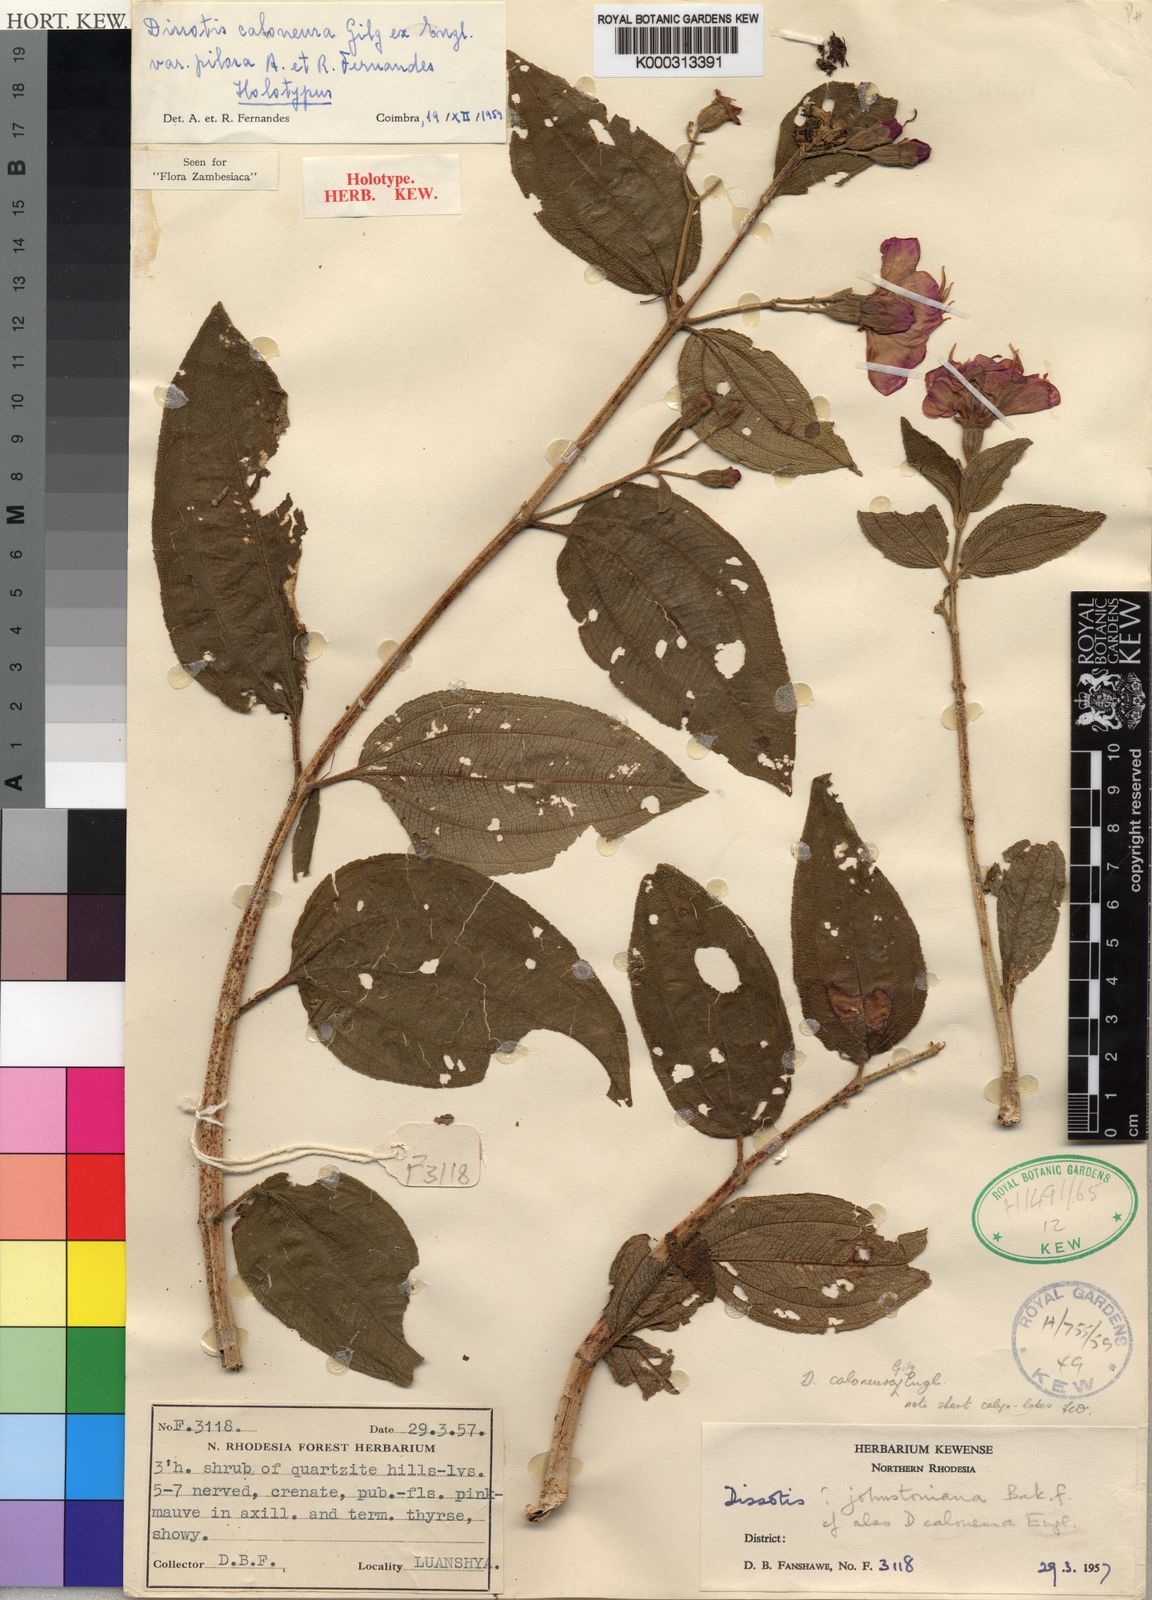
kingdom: Plantae
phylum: Tracheophyta
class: Magnoliopsida
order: Myrtales
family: Melastomataceae
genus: Dissotidendron
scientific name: Dissotidendron caloneurum
